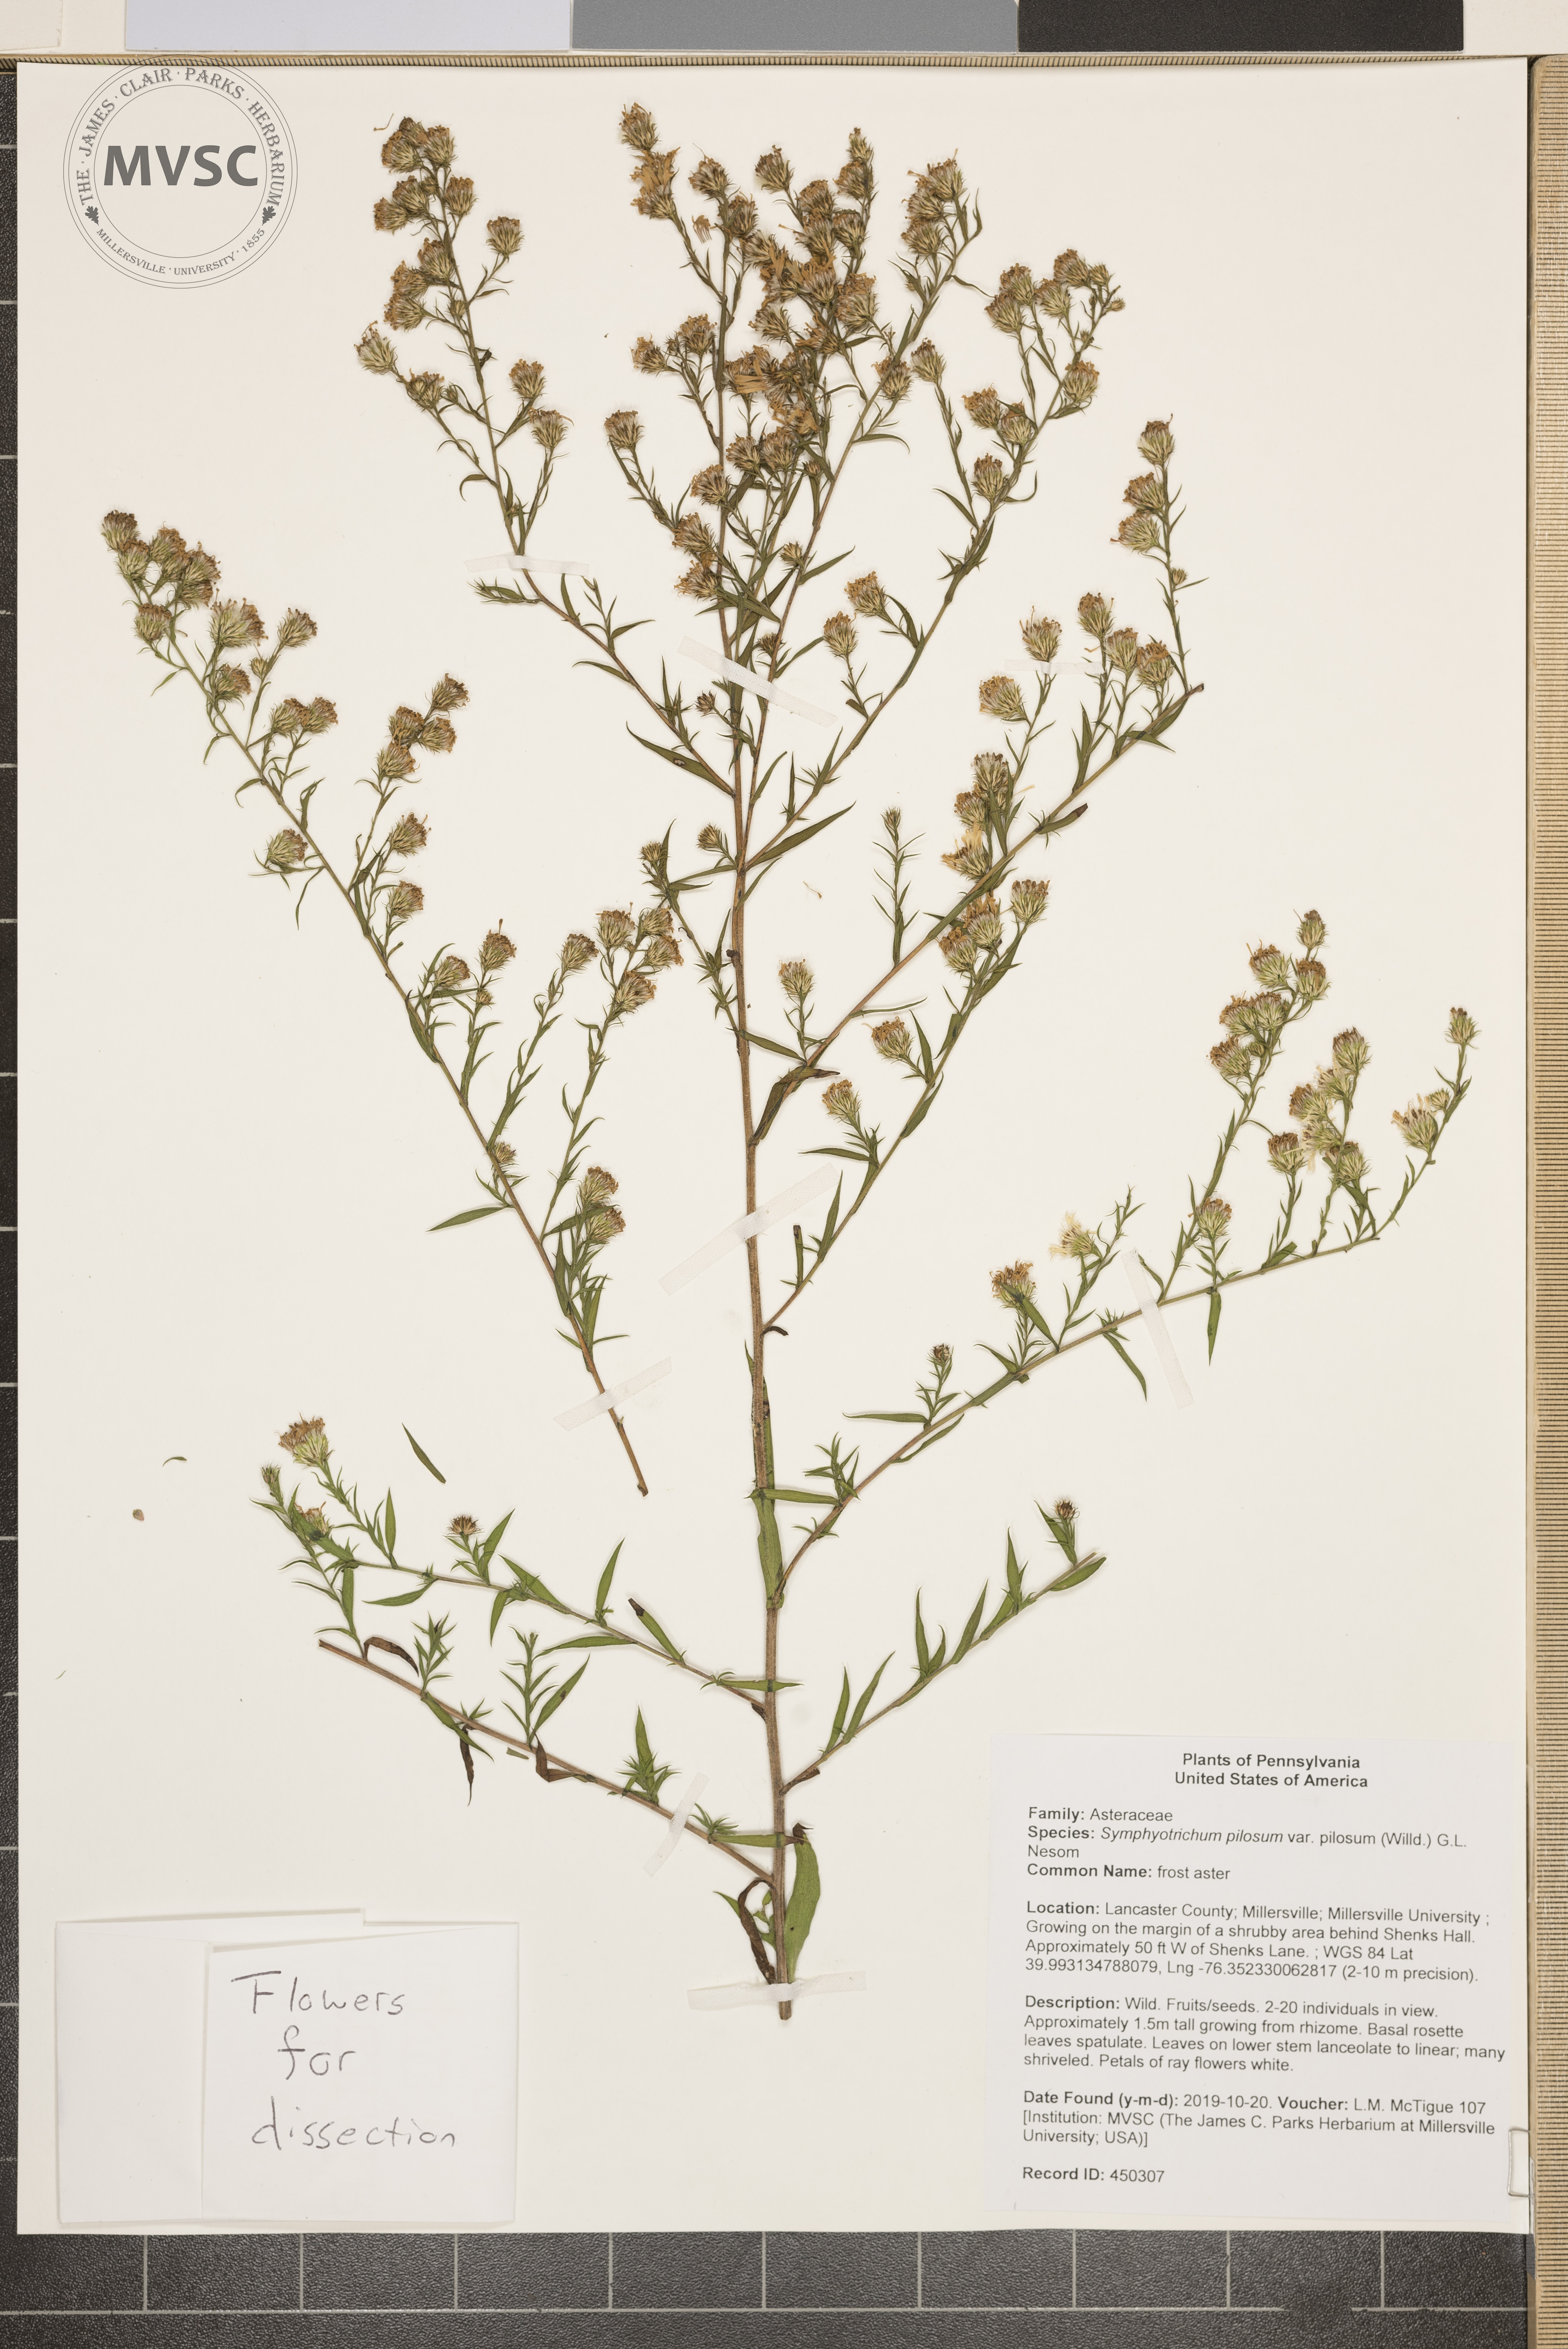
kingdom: Plantae
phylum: Tracheophyta
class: Magnoliopsida
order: Asterales
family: Asteraceae
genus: Symphyotrichum
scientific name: Symphyotrichum pilosum
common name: frost aster
